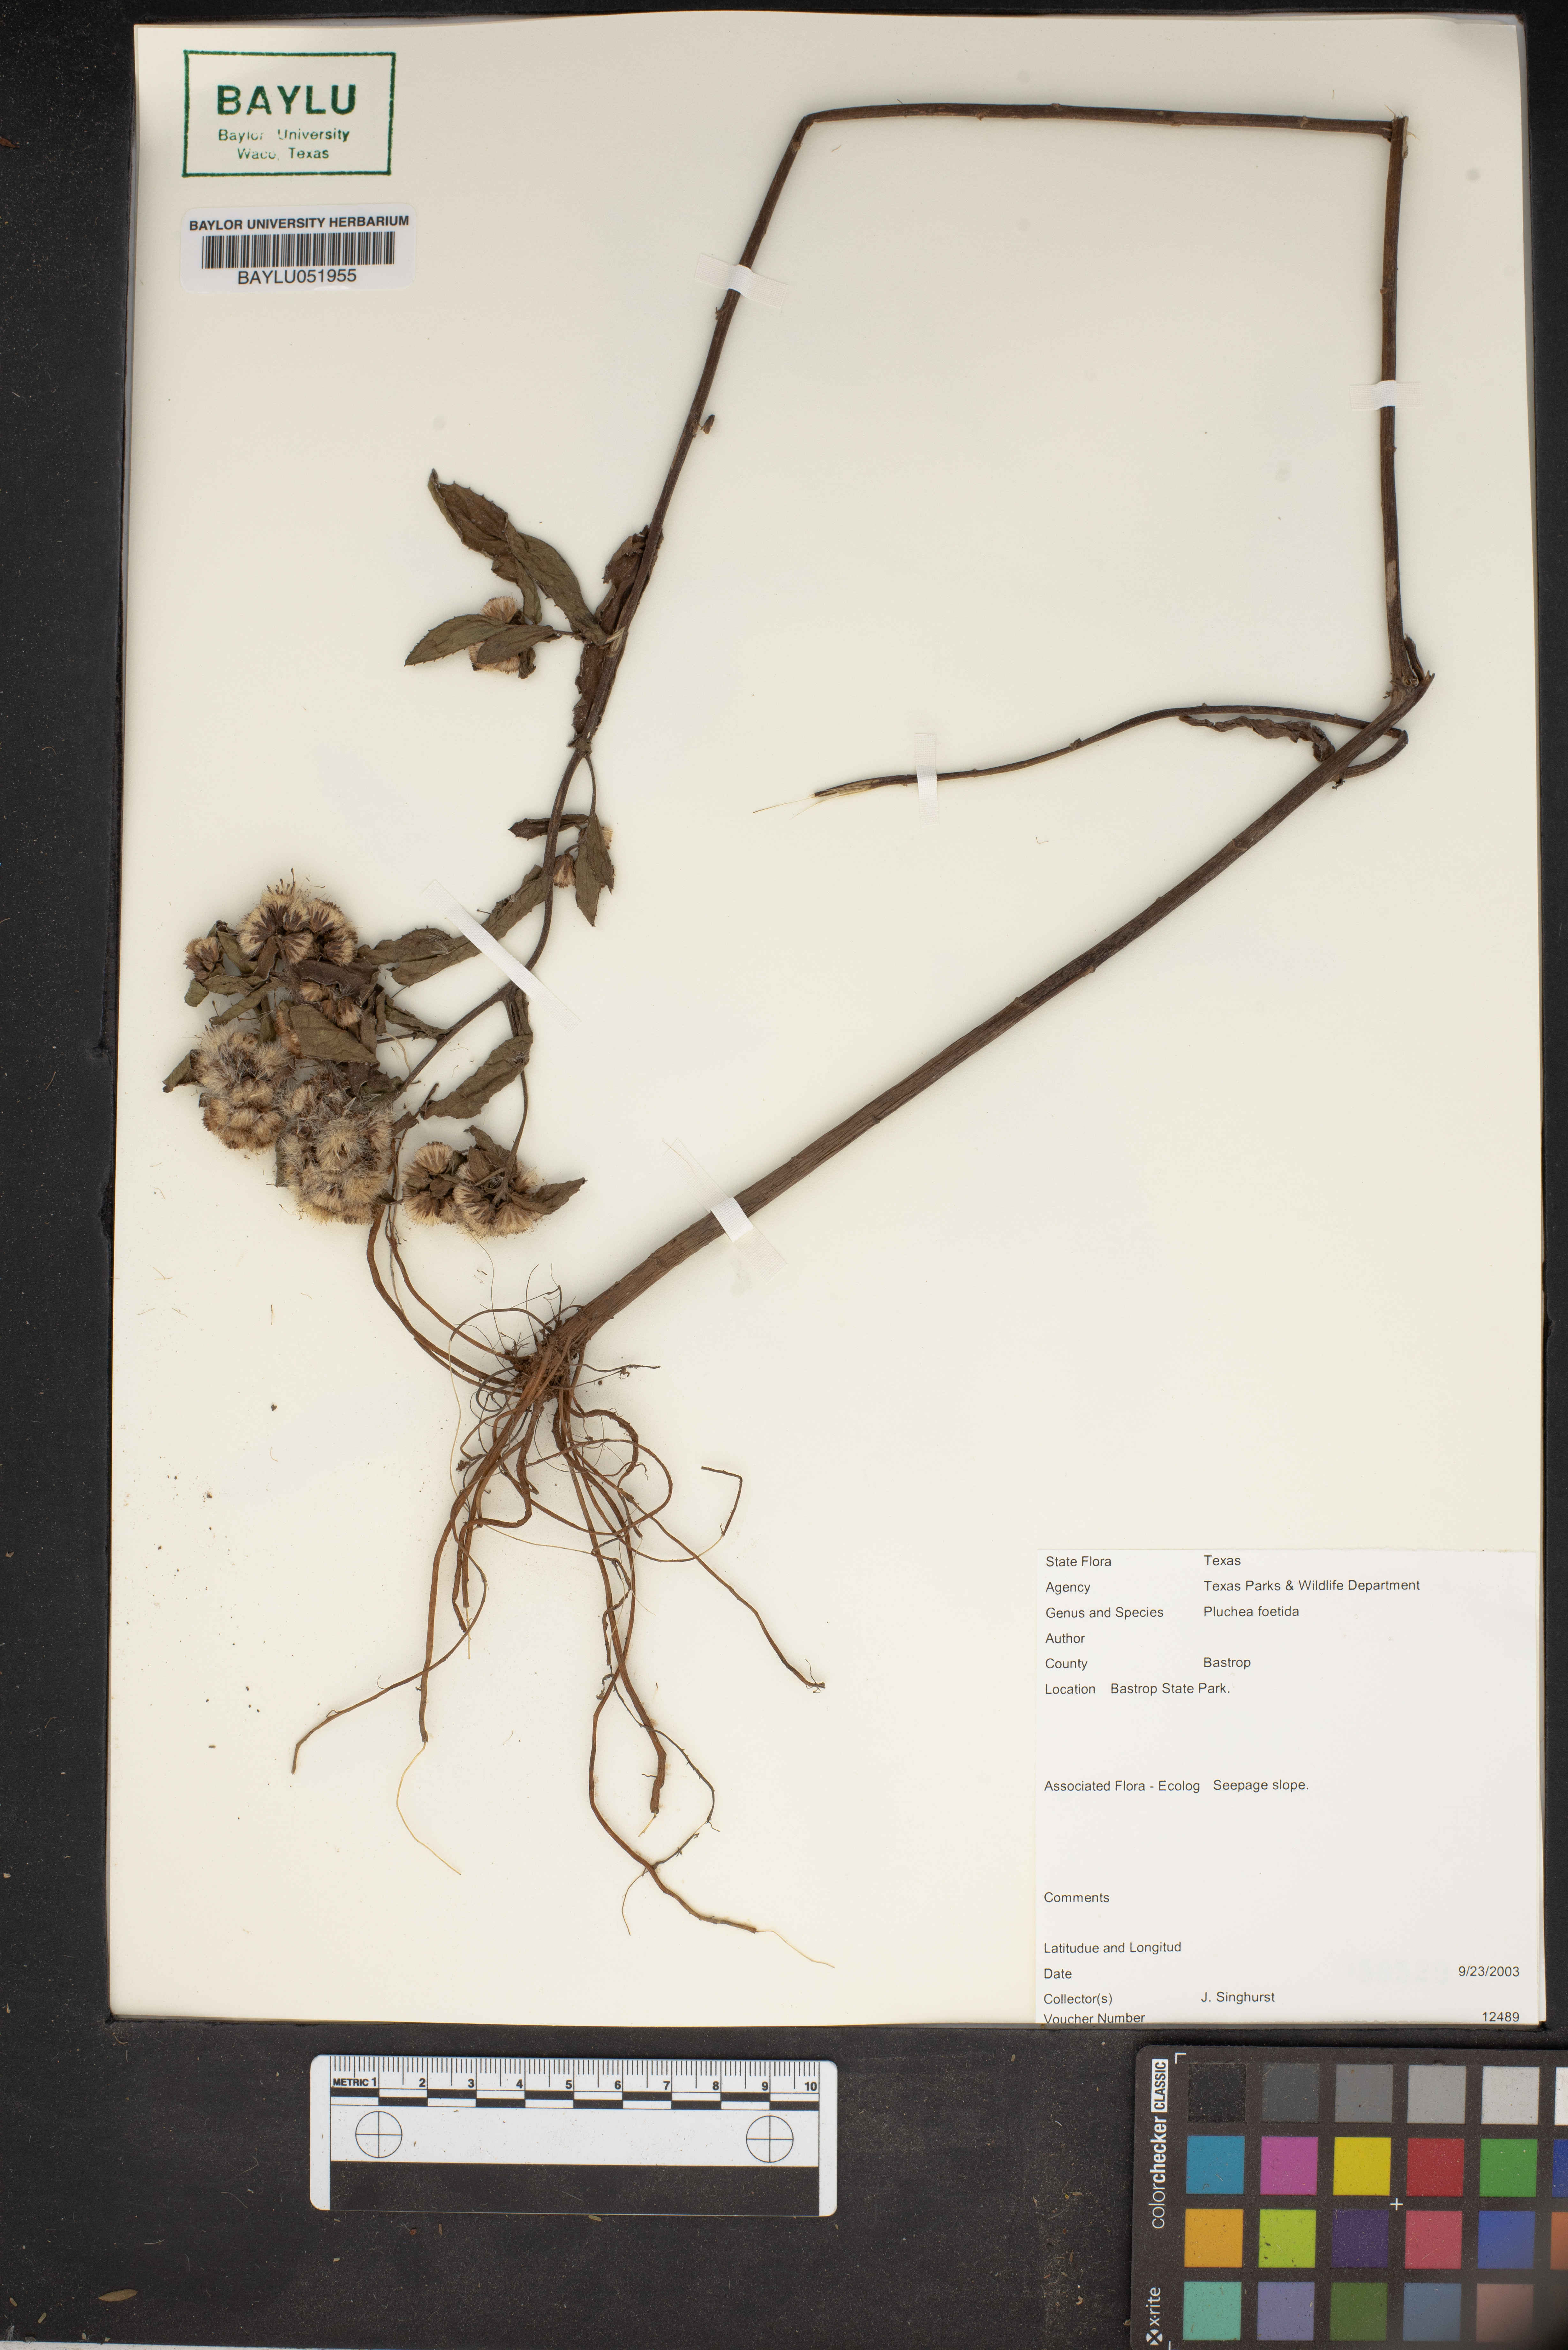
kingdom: Plantae
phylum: Tracheophyta
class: Magnoliopsida
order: Asterales
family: Asteraceae
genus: Pluchea
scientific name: Pluchea foetida
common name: Stinking camphorweed
